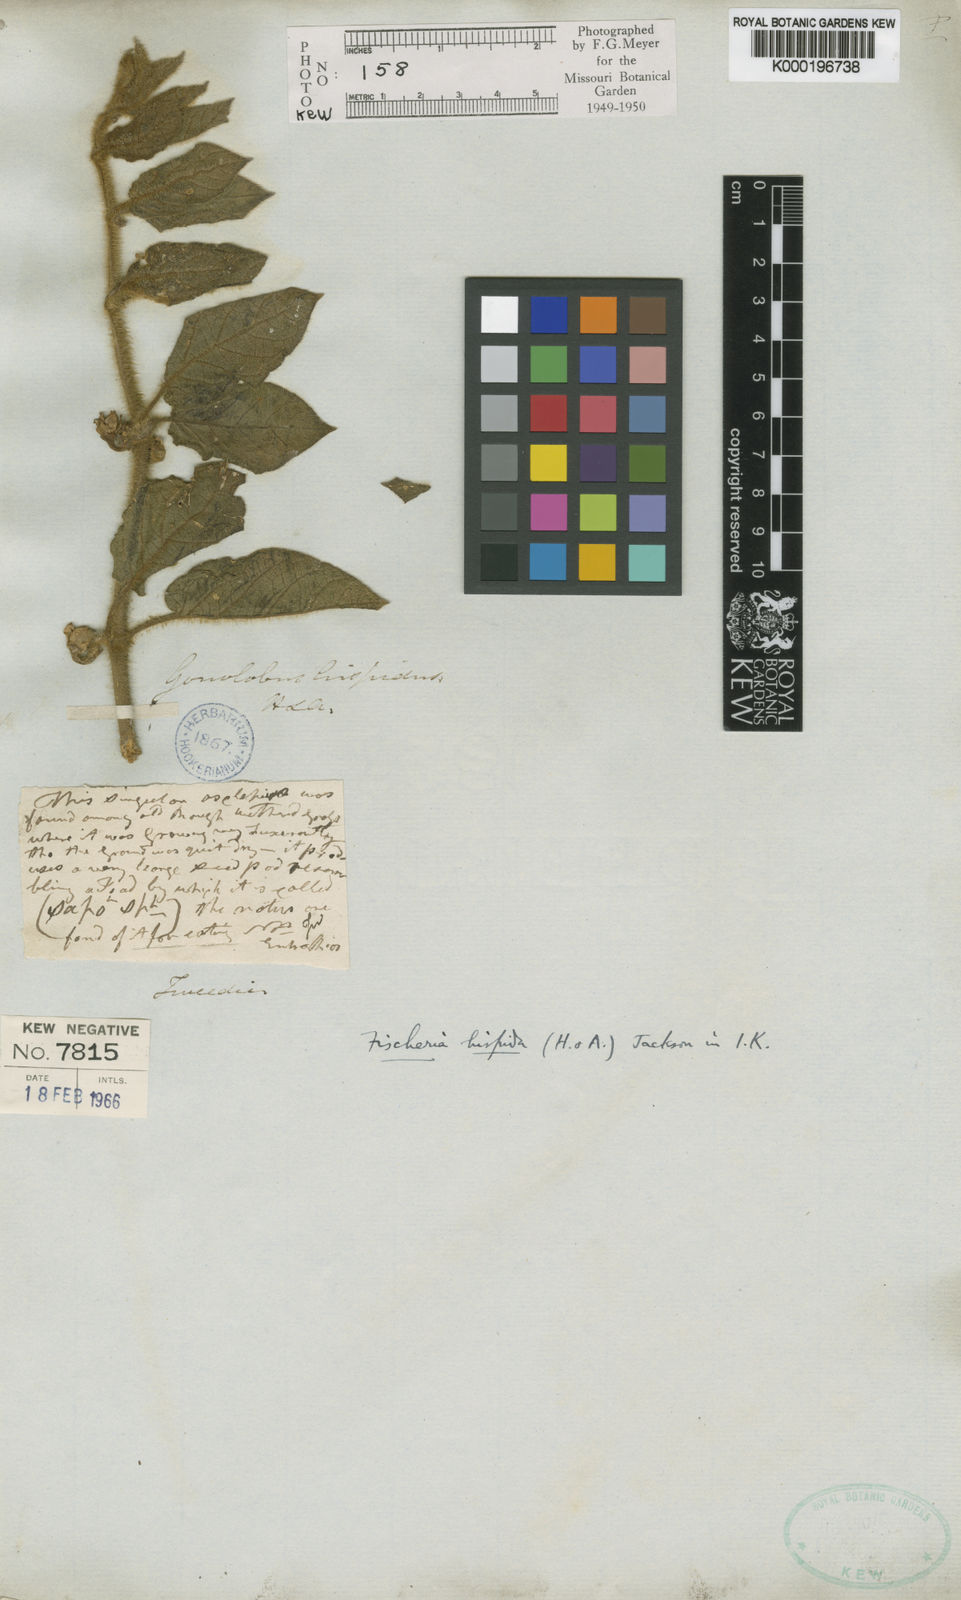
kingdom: Plantae
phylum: Tracheophyta
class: Magnoliopsida
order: Gentianales
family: Apocynaceae
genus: Cristobalia
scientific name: Cristobalia
